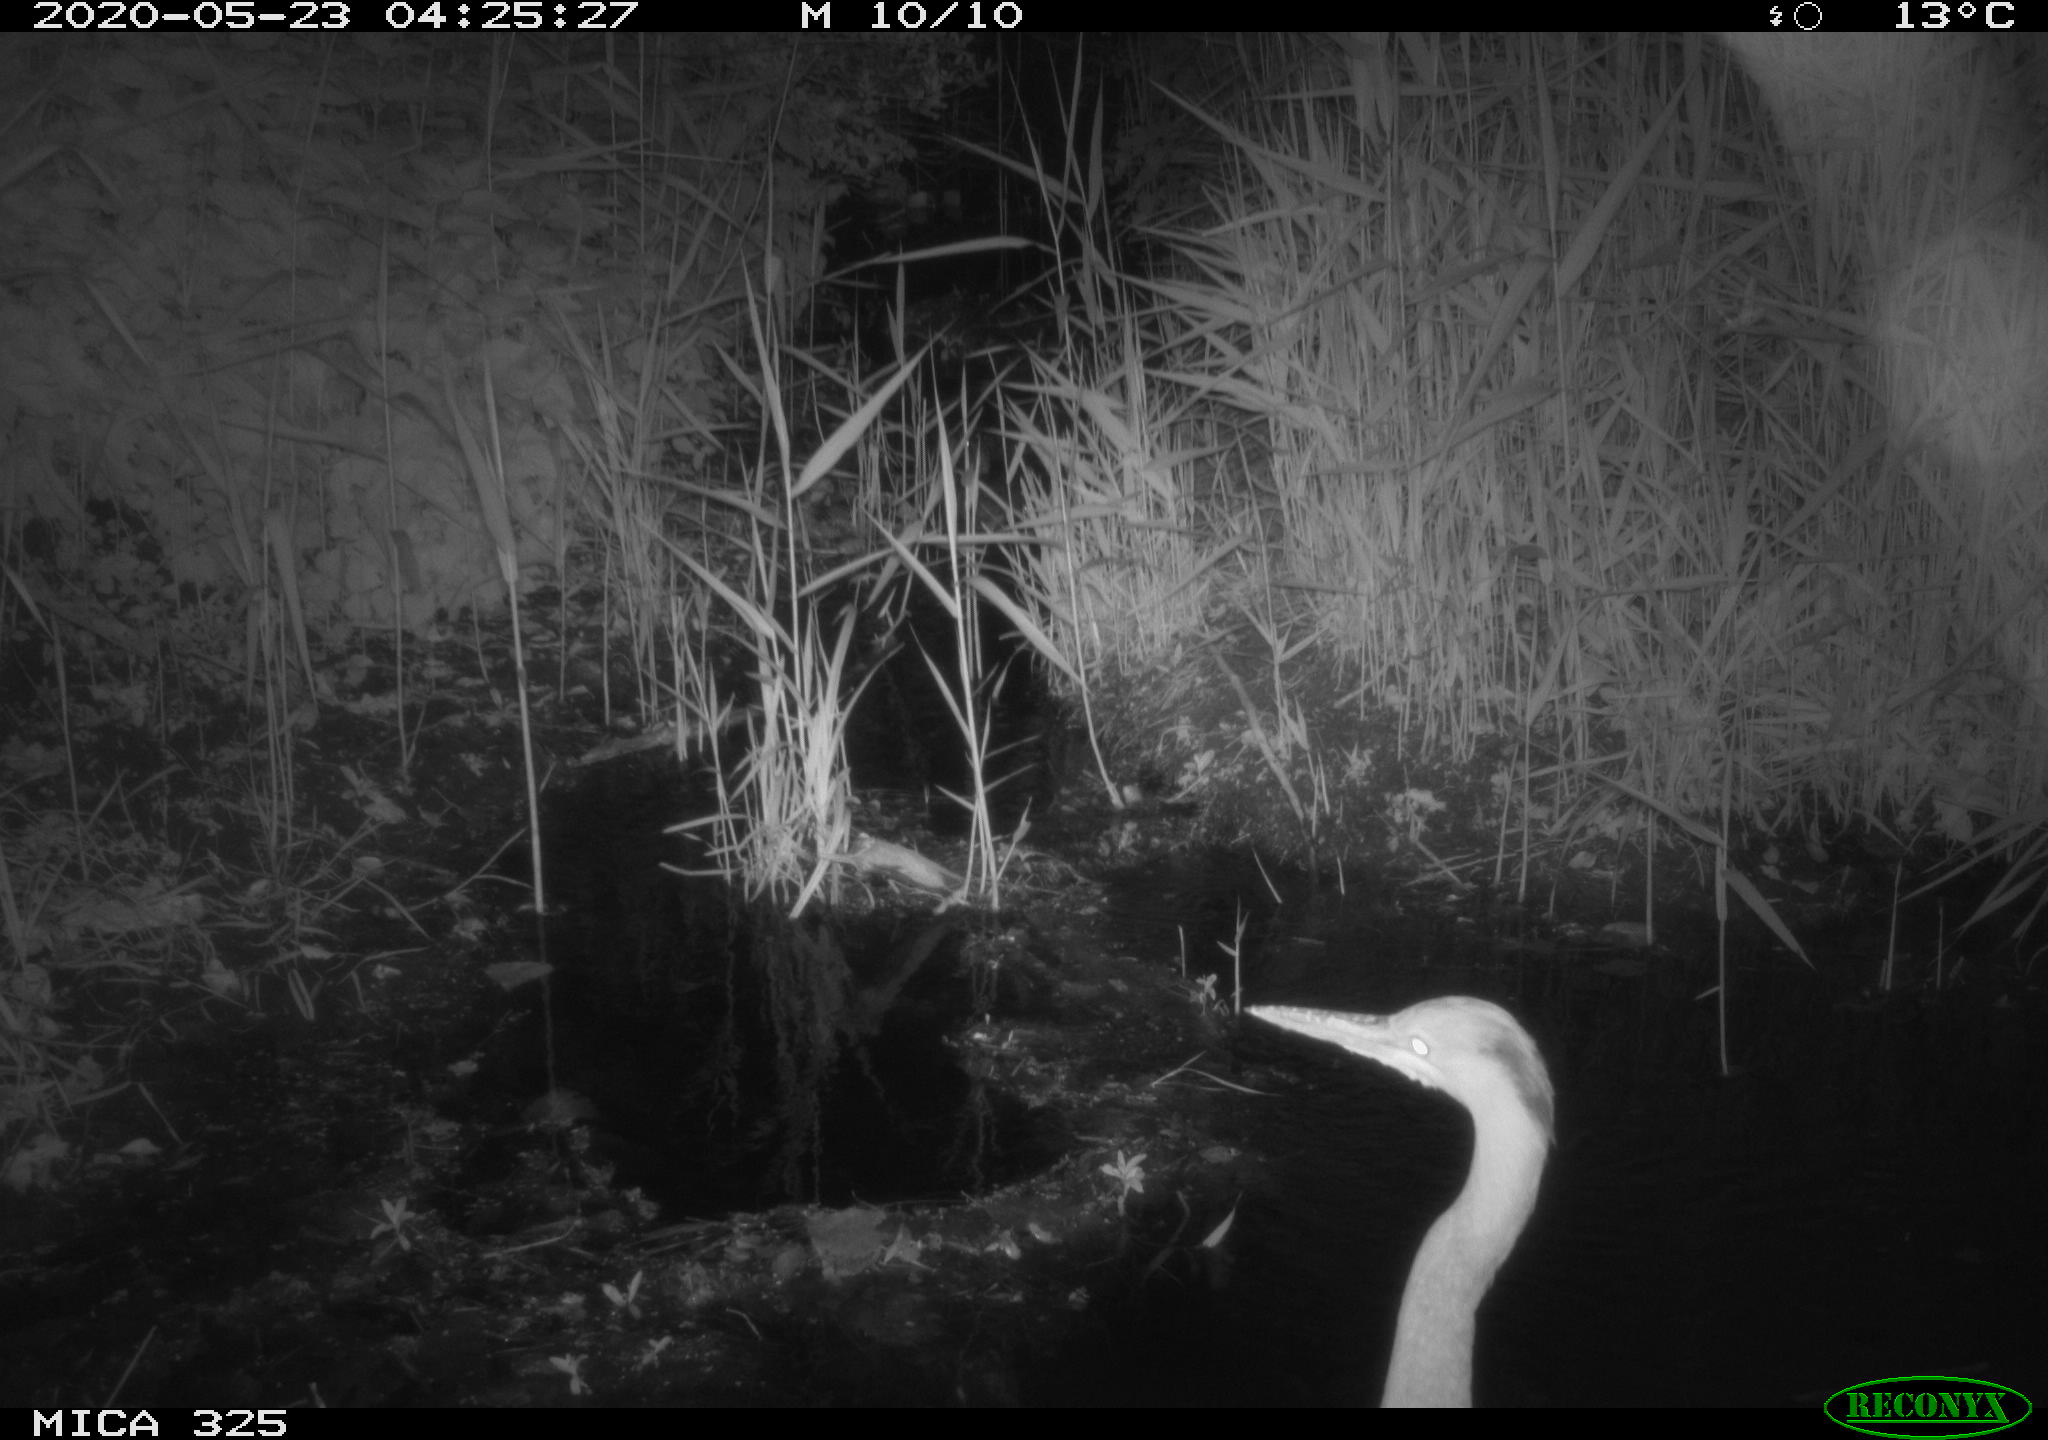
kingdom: Animalia
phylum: Chordata
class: Aves
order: Anseriformes
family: Anatidae
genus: Anas
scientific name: Anas platyrhynchos
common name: Mallard
